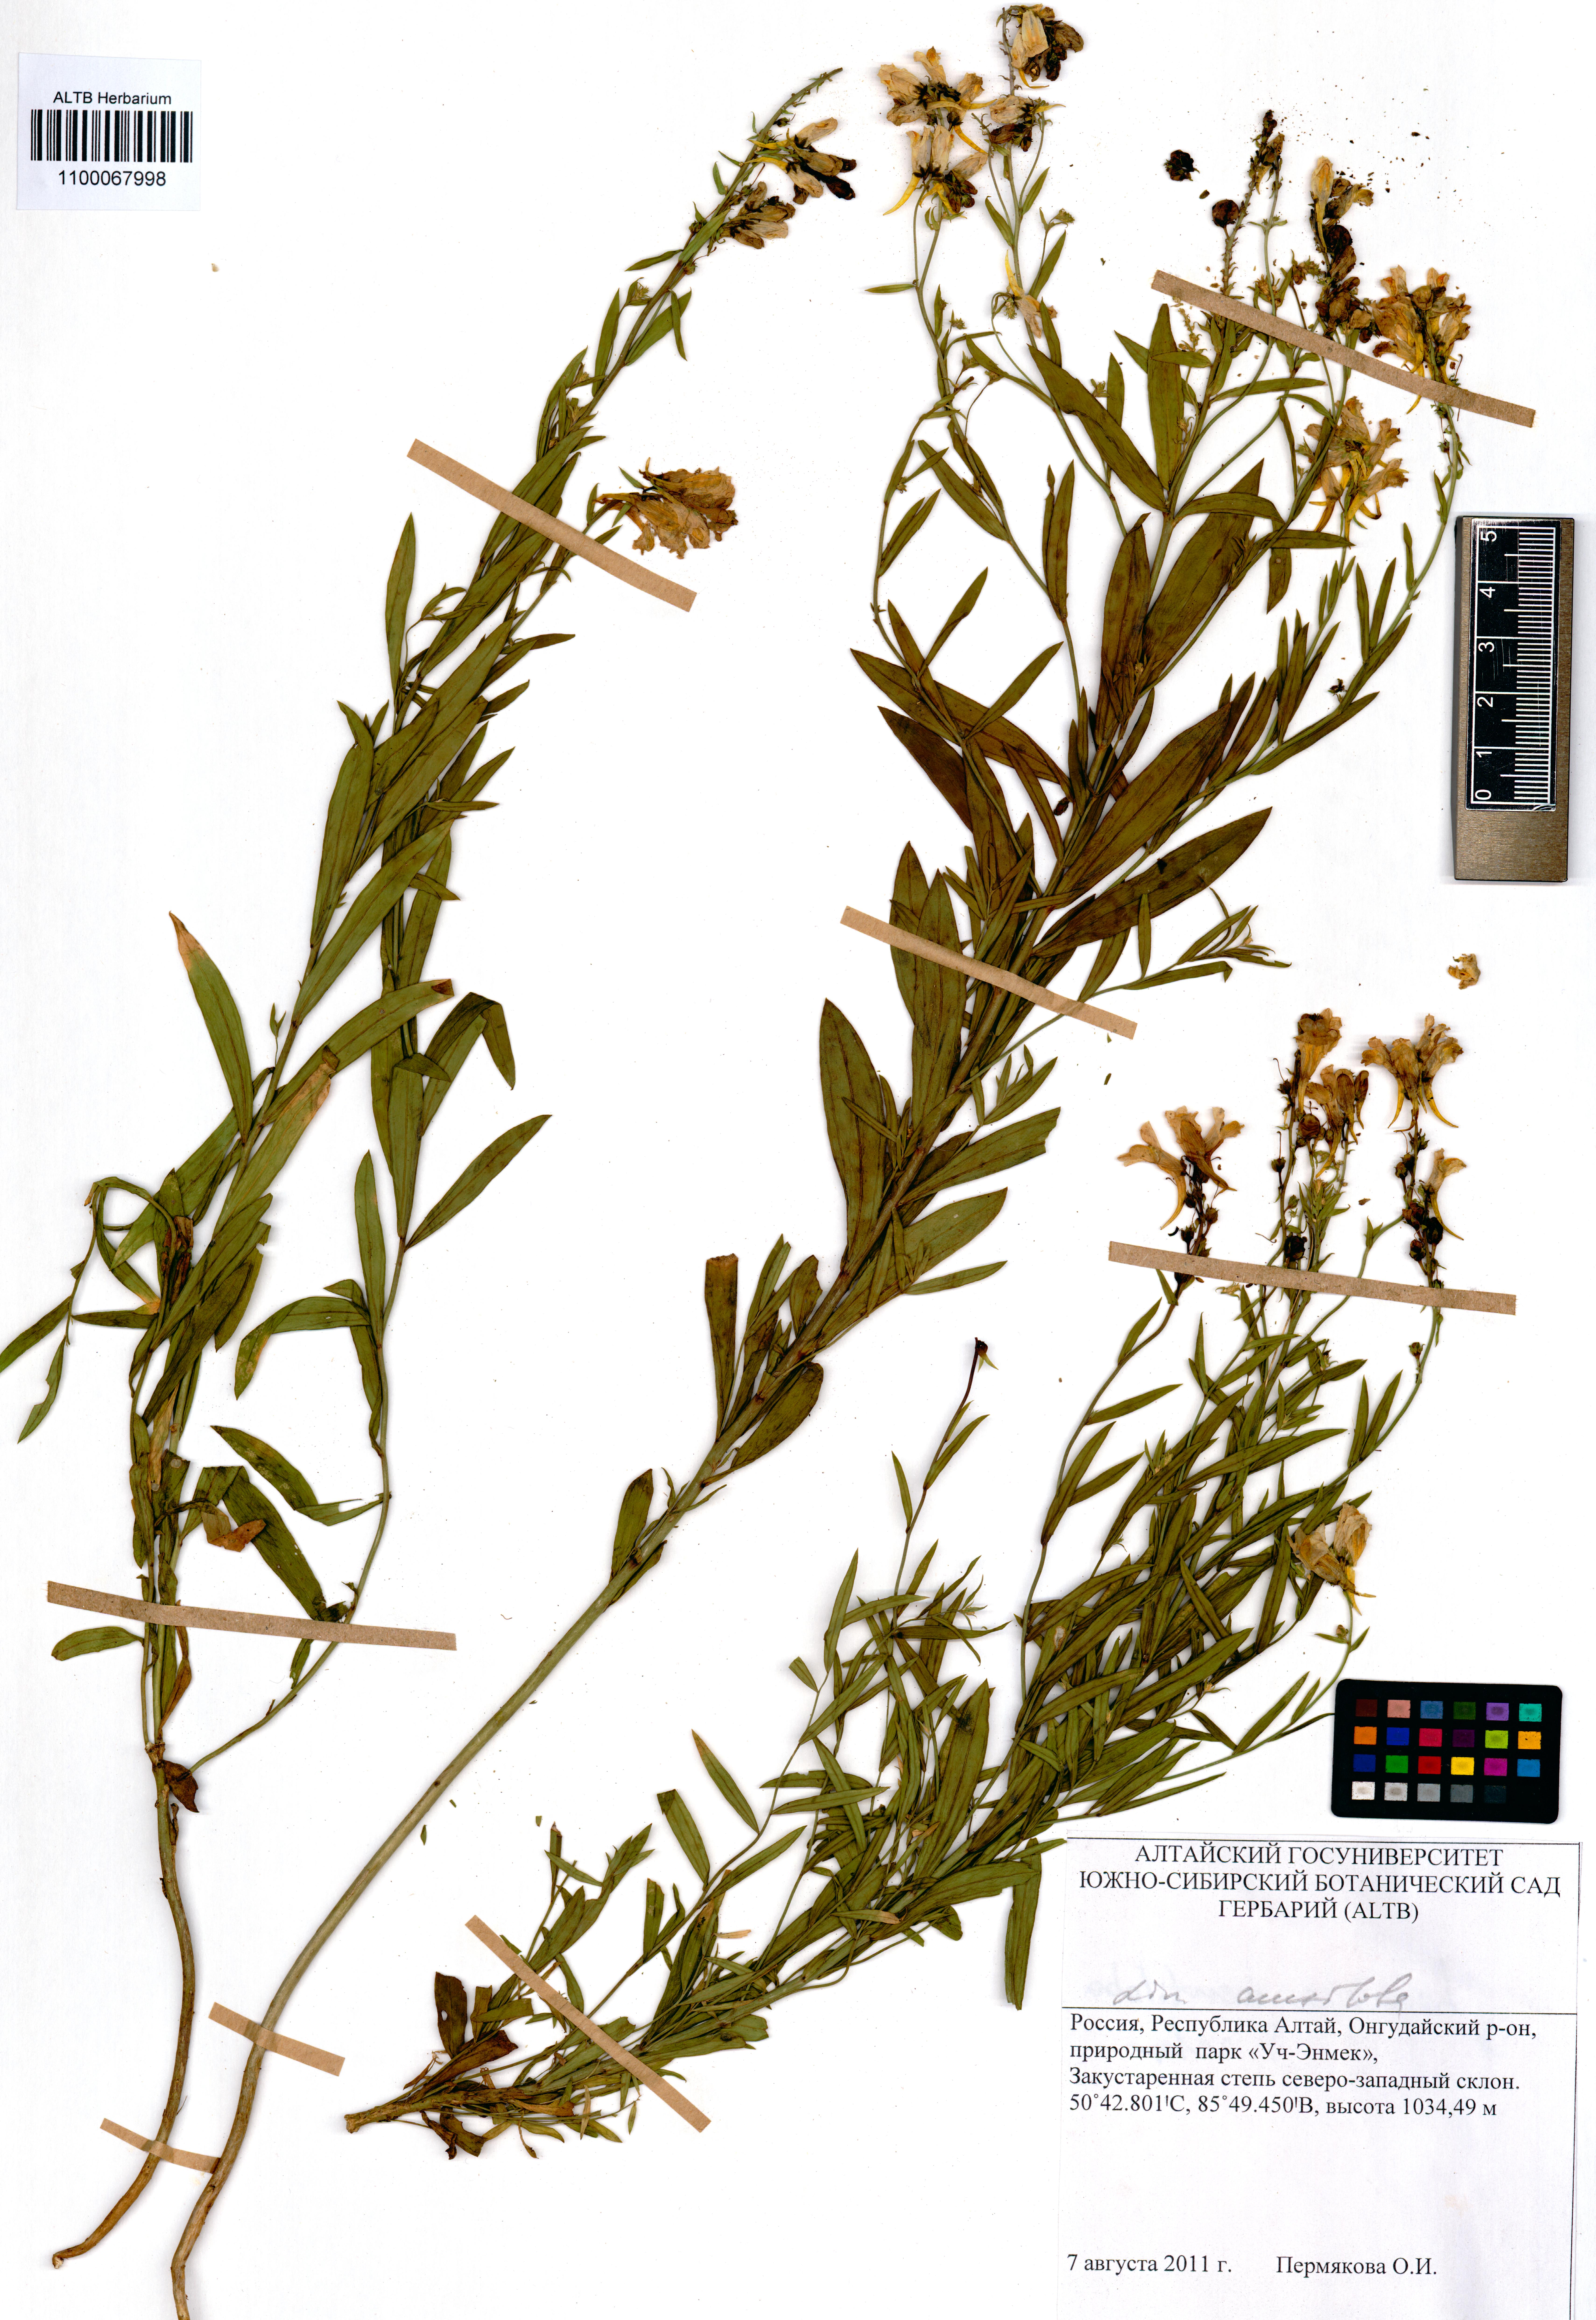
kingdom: Plantae
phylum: Tracheophyta
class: Magnoliopsida
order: Lamiales
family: Plantaginaceae
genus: Linaria
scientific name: Linaria acutiloba
